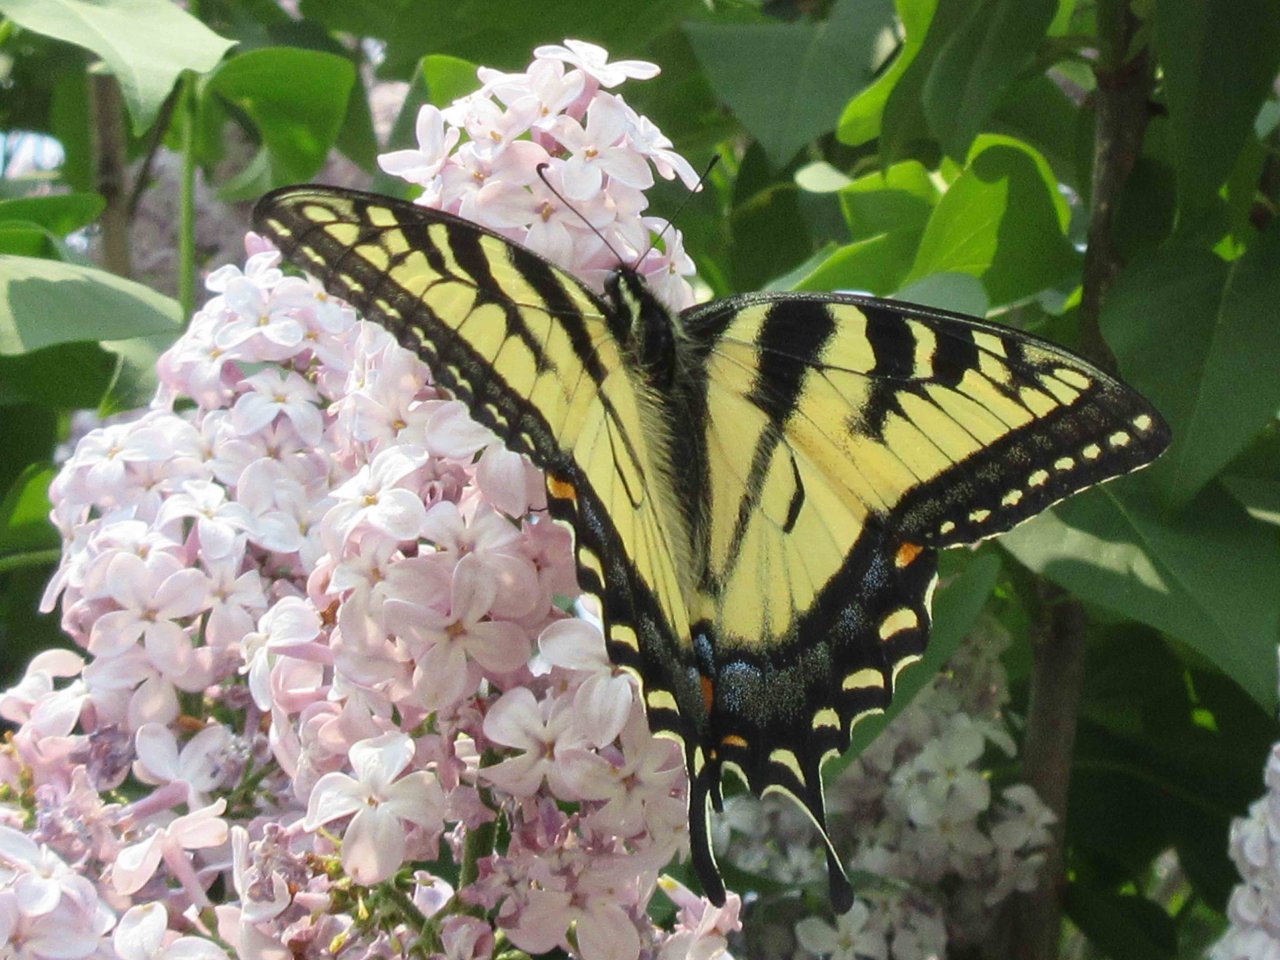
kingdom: Animalia
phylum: Arthropoda
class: Insecta
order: Lepidoptera
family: Papilionidae
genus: Pterourus
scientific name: Pterourus glaucus
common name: Eastern Tiger Swallowtail
